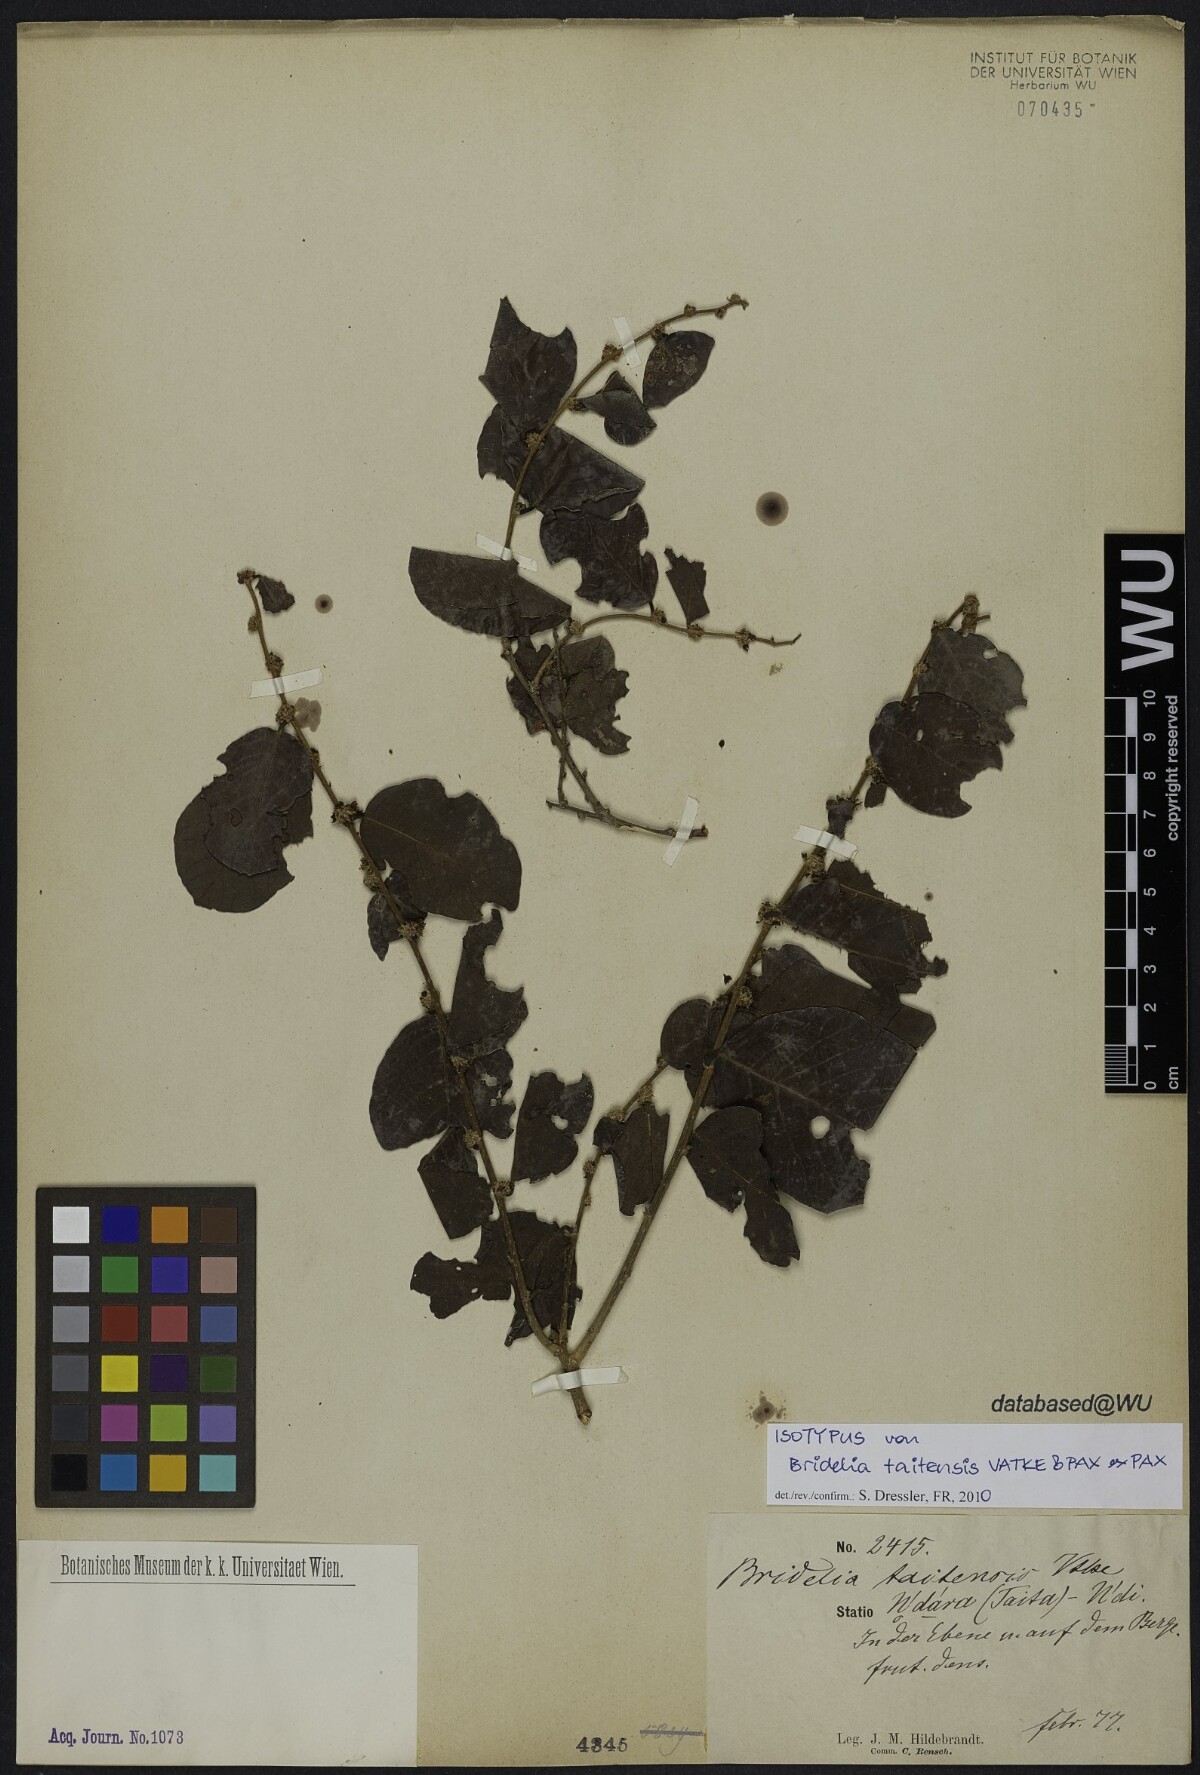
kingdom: Plantae
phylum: Tracheophyta
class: Magnoliopsida
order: Malpighiales
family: Phyllanthaceae
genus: Bridelia
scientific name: Bridelia taitensis
